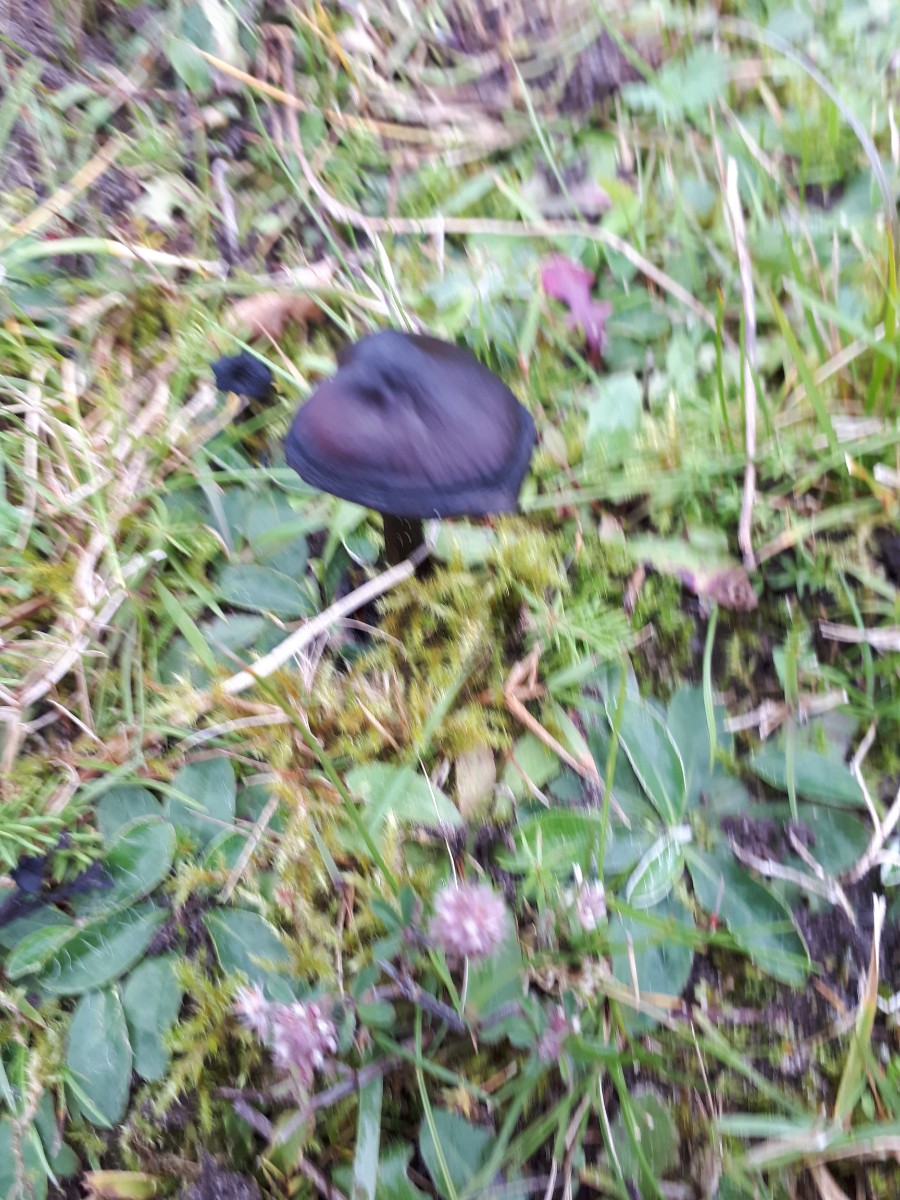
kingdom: Fungi
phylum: Basidiomycota
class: Agaricomycetes
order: Agaricales
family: Hygrophoraceae
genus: Hygrocybe
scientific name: Hygrocybe conica
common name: kegle-vokshat
